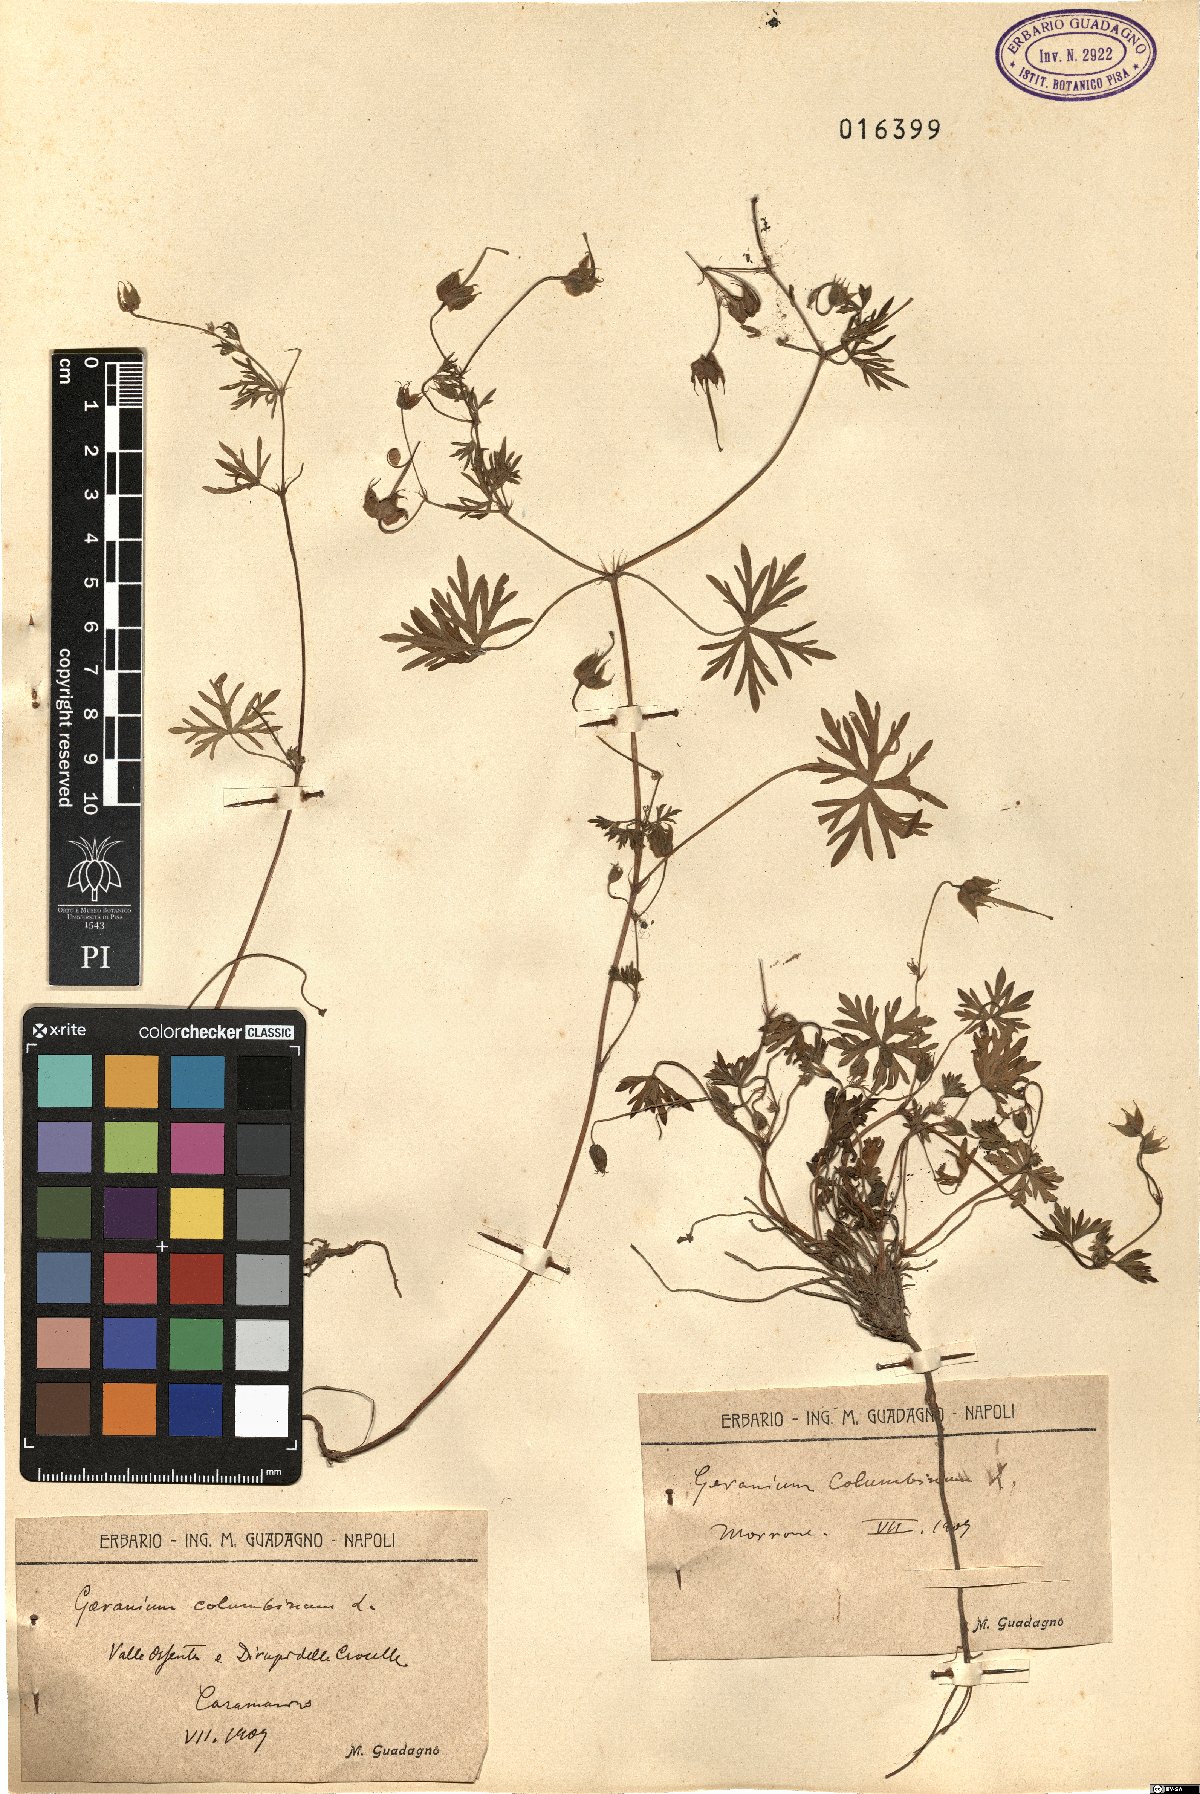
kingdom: Plantae
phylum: Tracheophyta
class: Magnoliopsida
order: Geraniales
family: Geraniaceae
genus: Geranium
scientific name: Geranium columbinum
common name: Long-stalked crane's-bill
